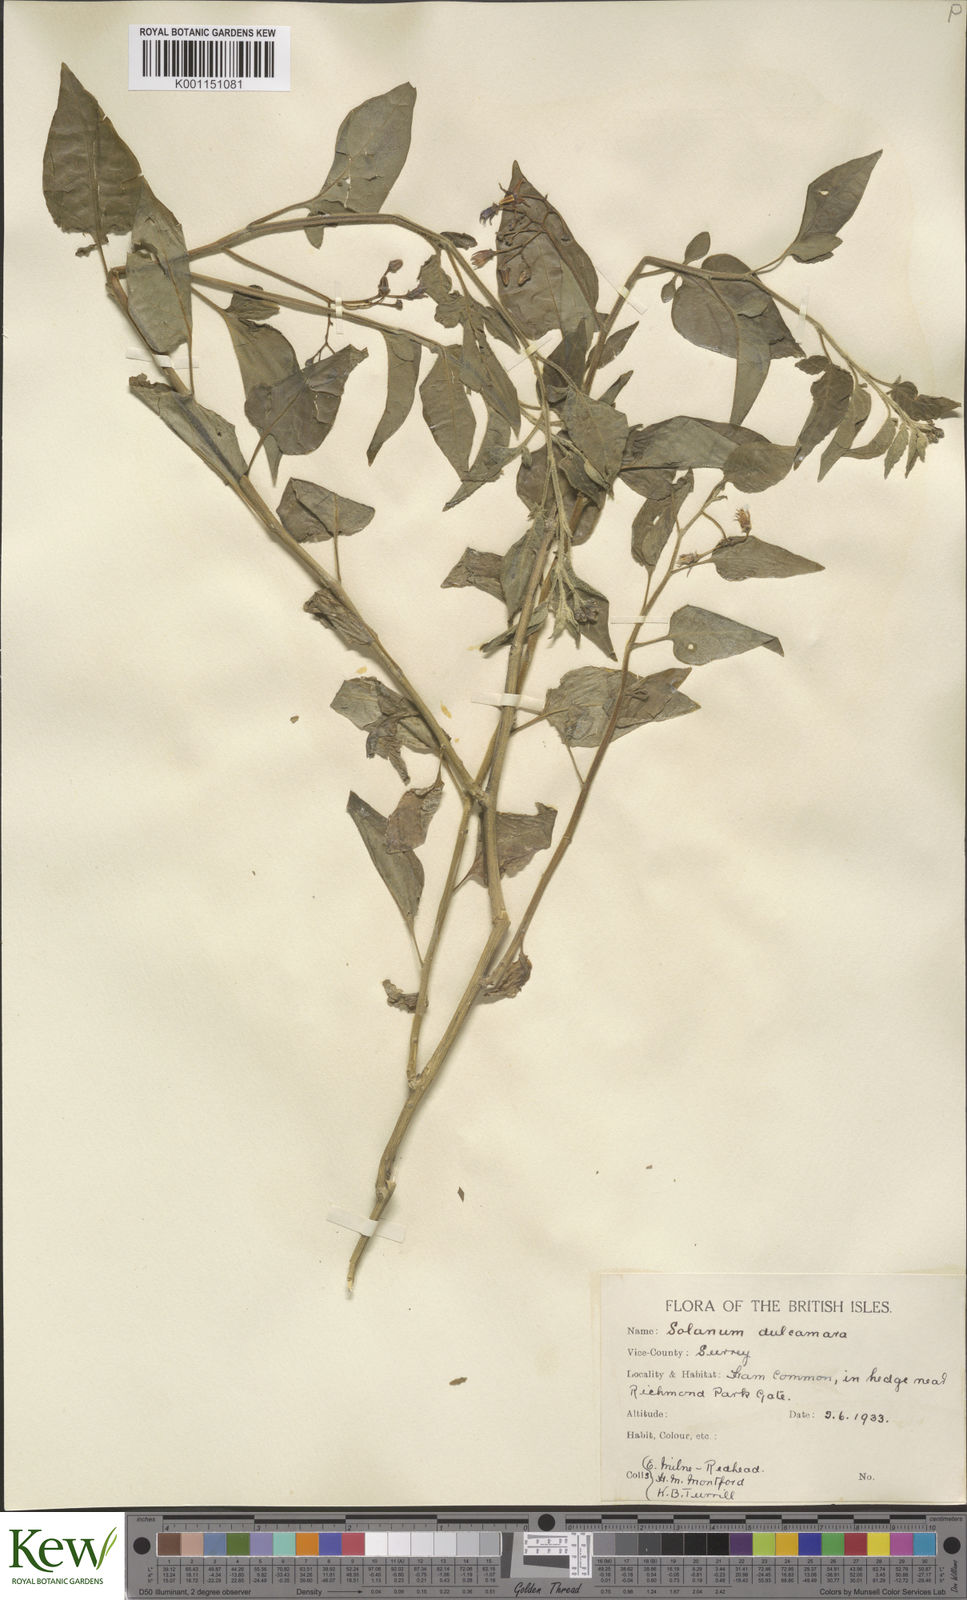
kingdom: Plantae
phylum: Tracheophyta
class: Magnoliopsida
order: Solanales
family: Solanaceae
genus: Solanum
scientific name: Solanum dulcamara
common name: Climbing nightshade
